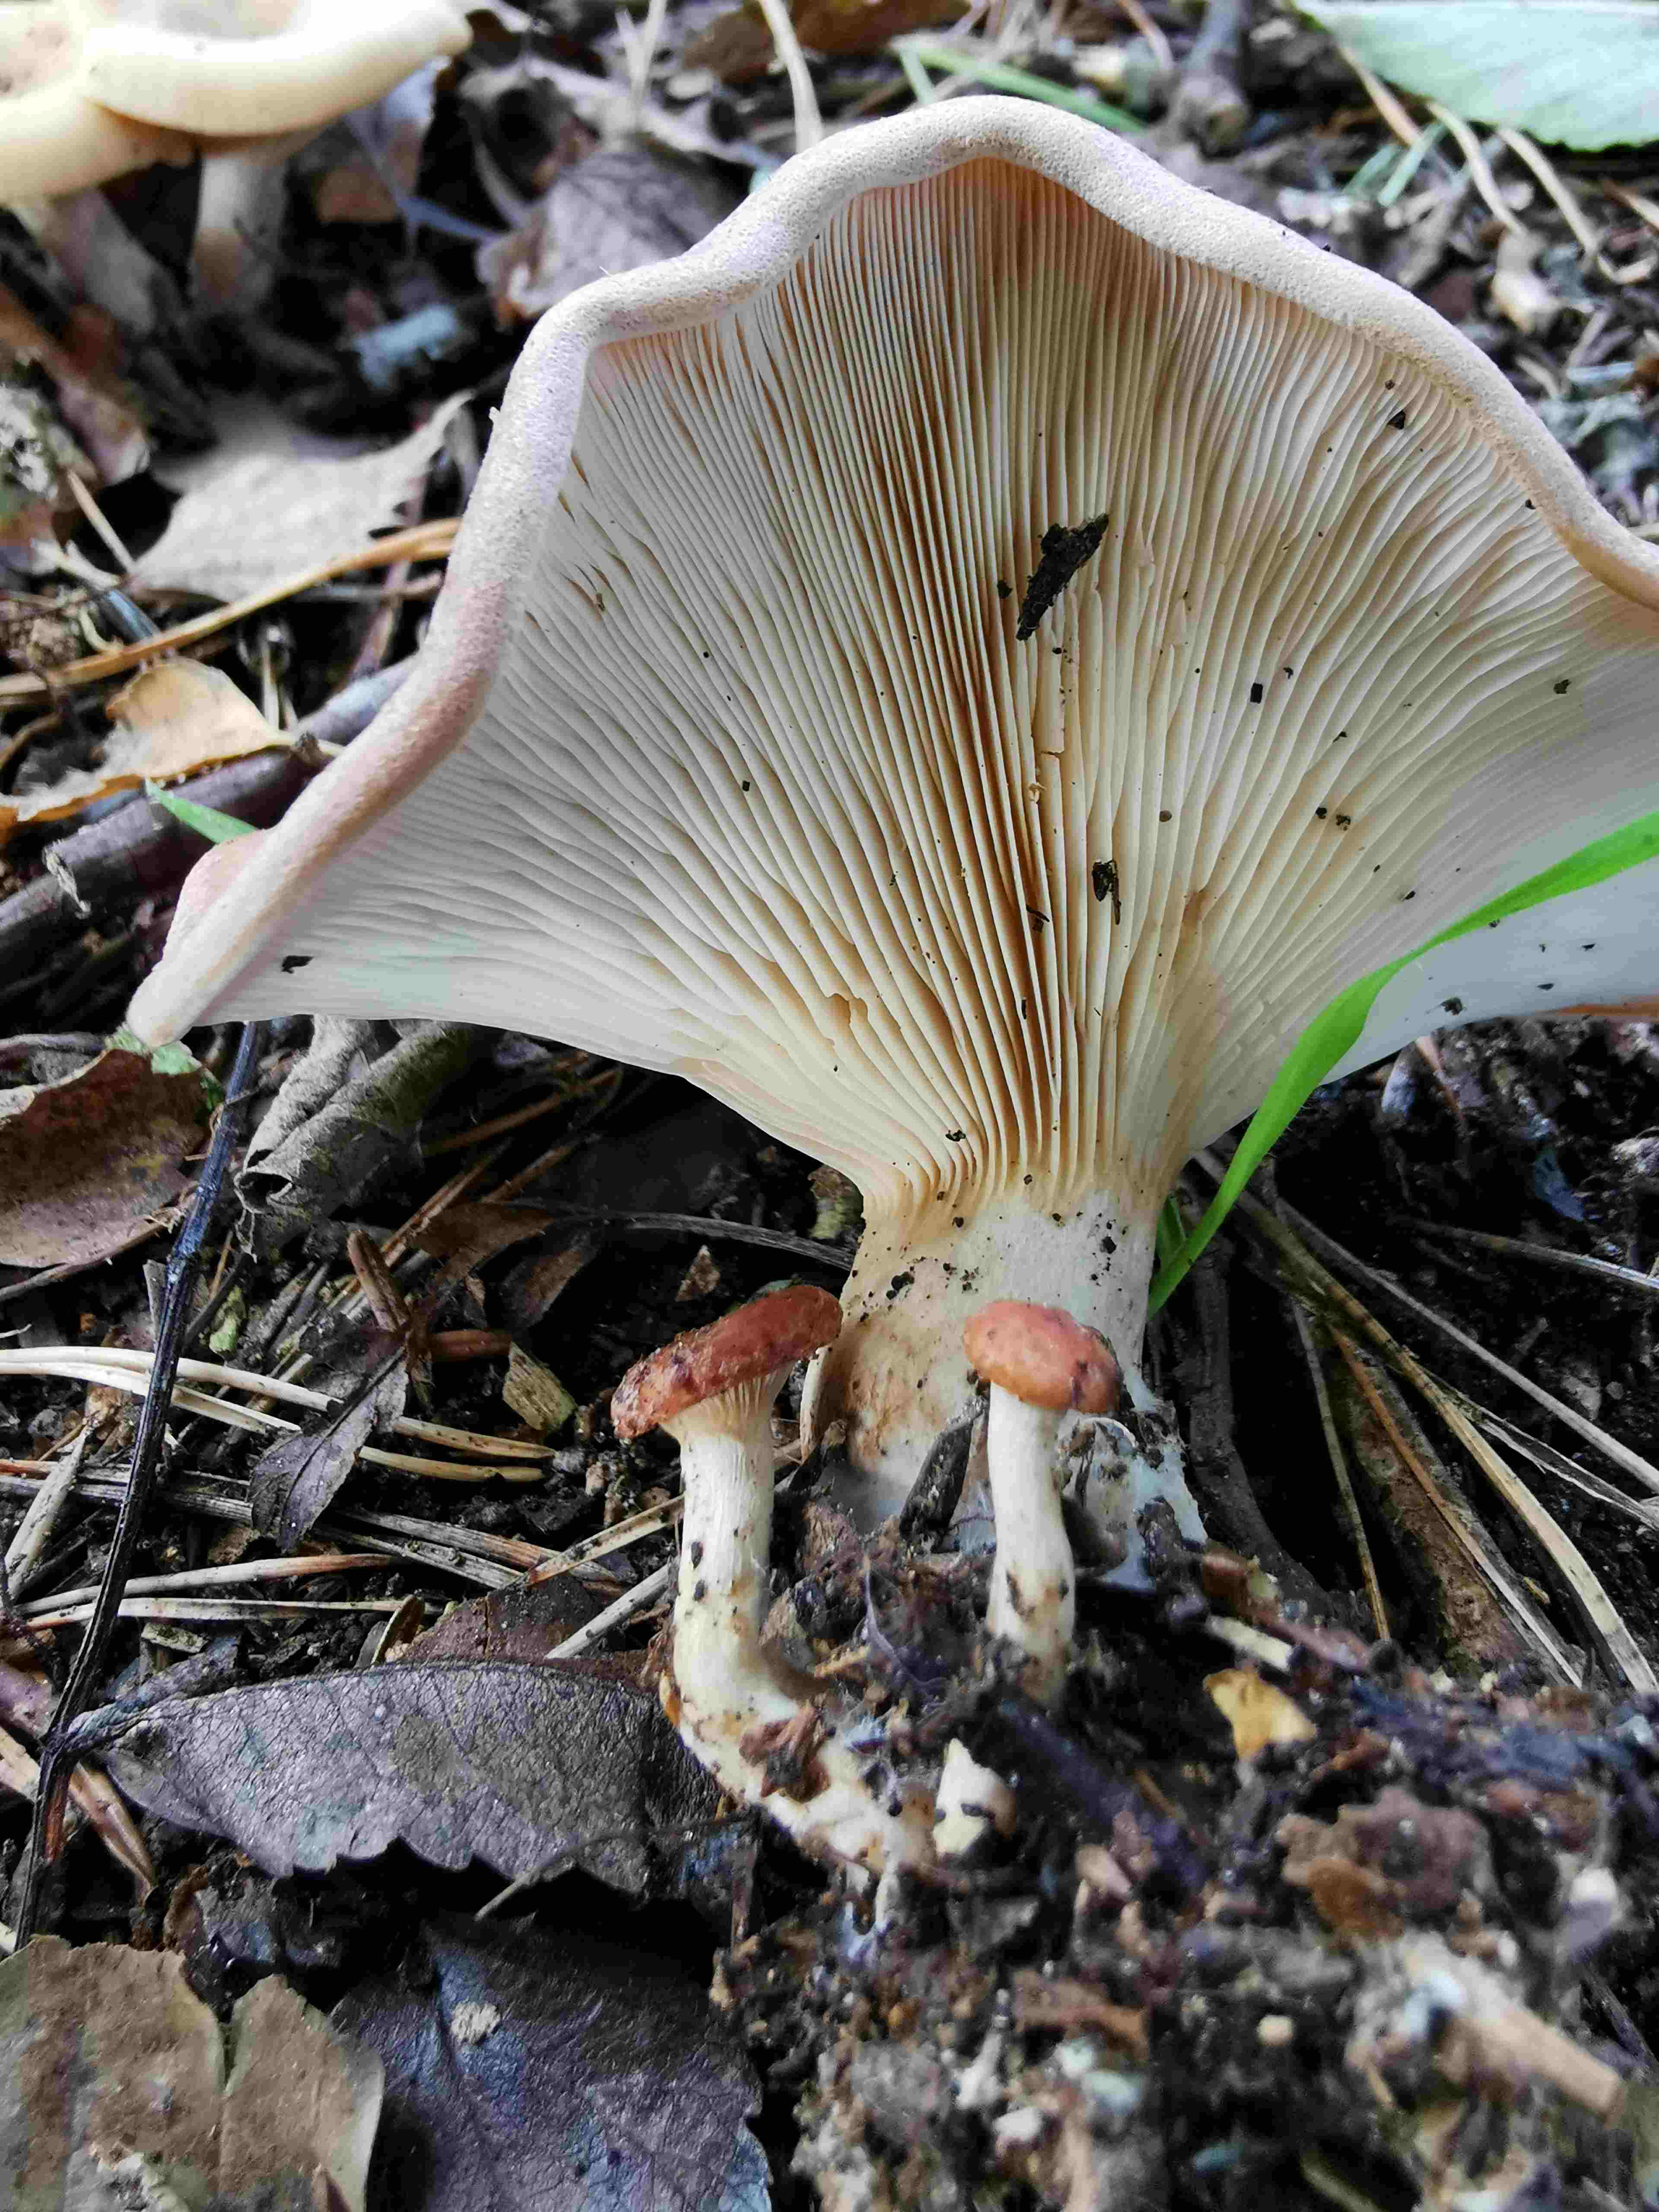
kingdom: Fungi
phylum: Basidiomycota
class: Agaricomycetes
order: Agaricales
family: Tricholomataceae
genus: Paralepista
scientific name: Paralepista flaccida
